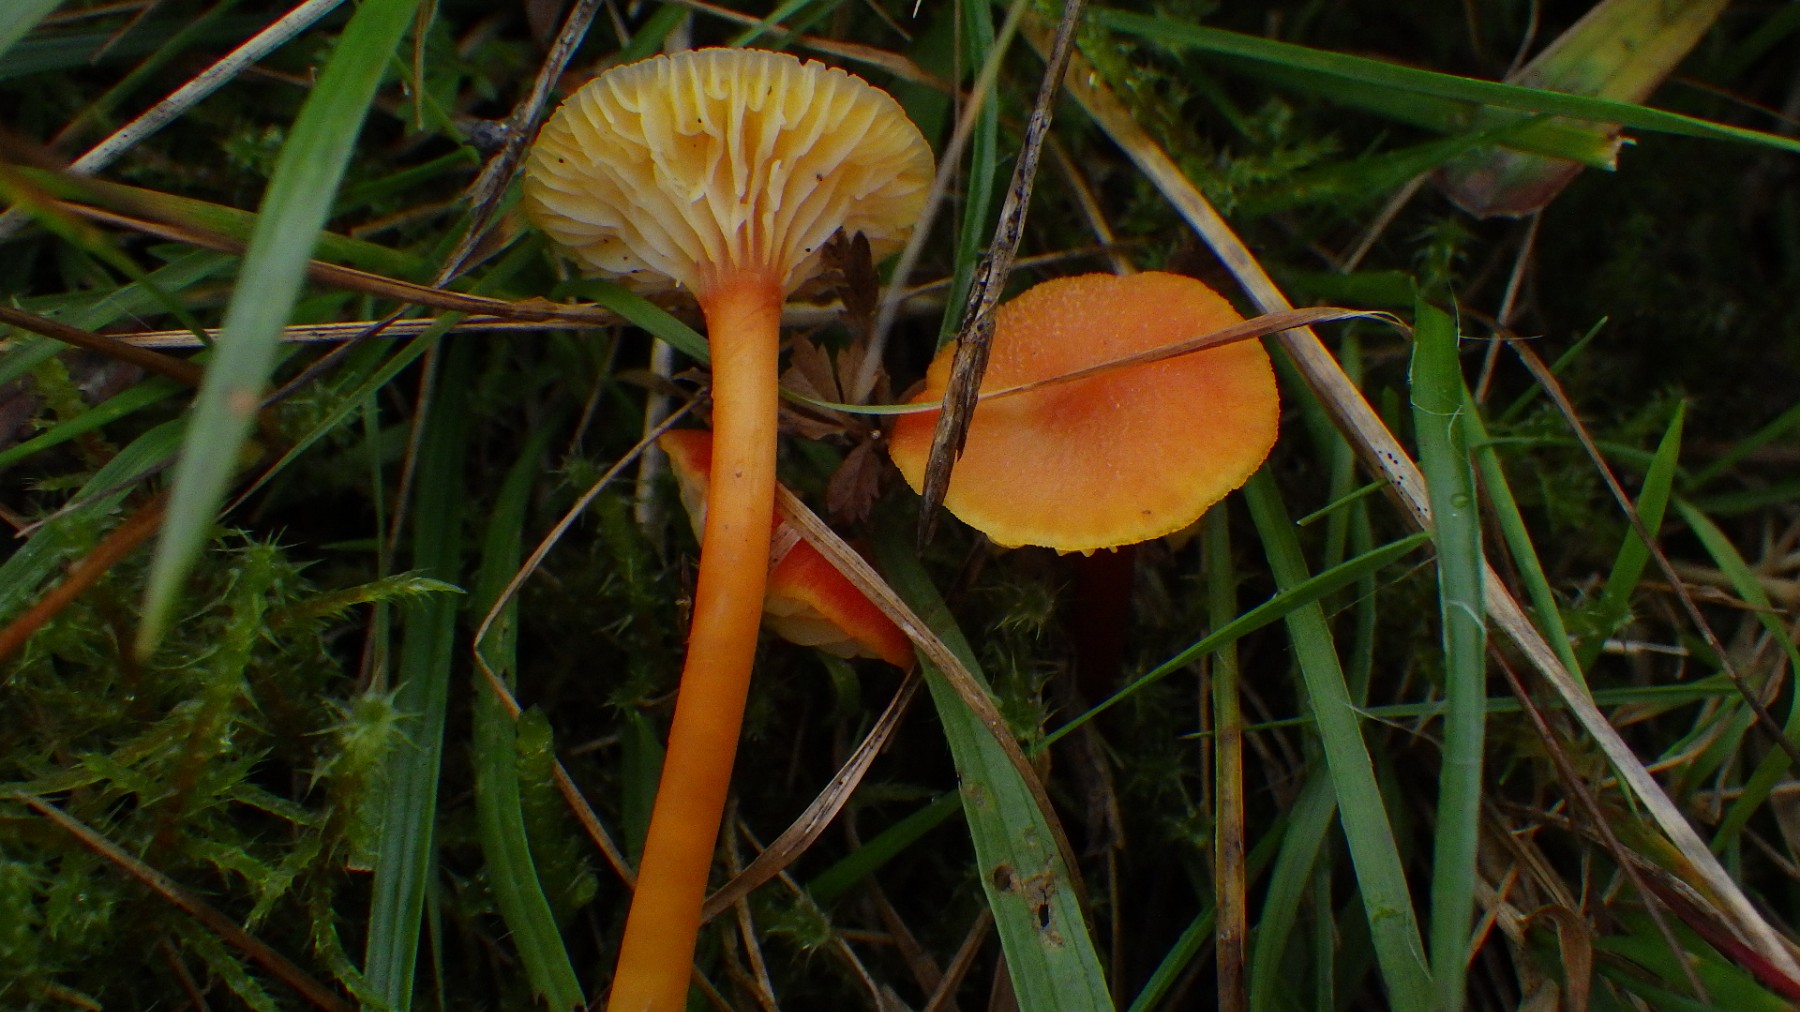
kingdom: Fungi
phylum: Basidiomycota
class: Agaricomycetes
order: Agaricales
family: Hygrophoraceae
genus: Hygrocybe
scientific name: Hygrocybe cantharellus
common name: kantarel-vokshat
